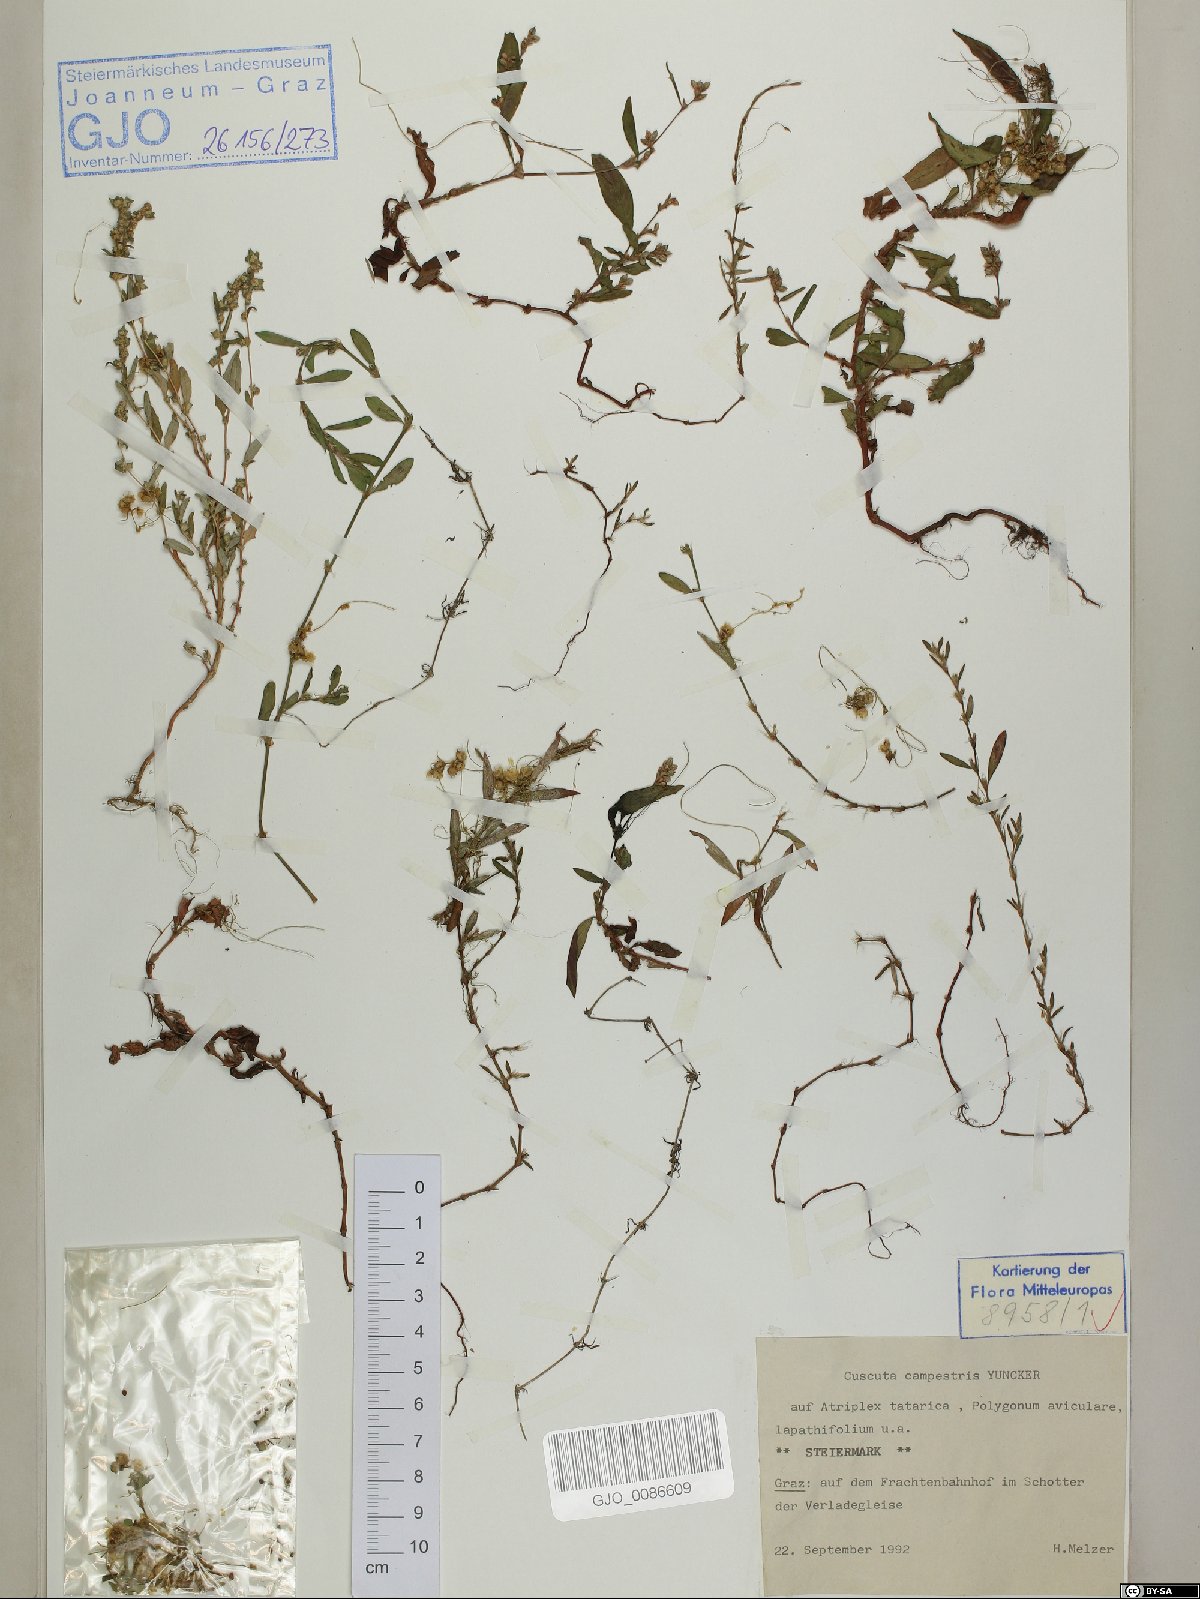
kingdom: Plantae
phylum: Tracheophyta
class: Magnoliopsida
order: Solanales
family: Convolvulaceae
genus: Cuscuta
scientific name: Cuscuta campestris
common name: Yellow dodder
